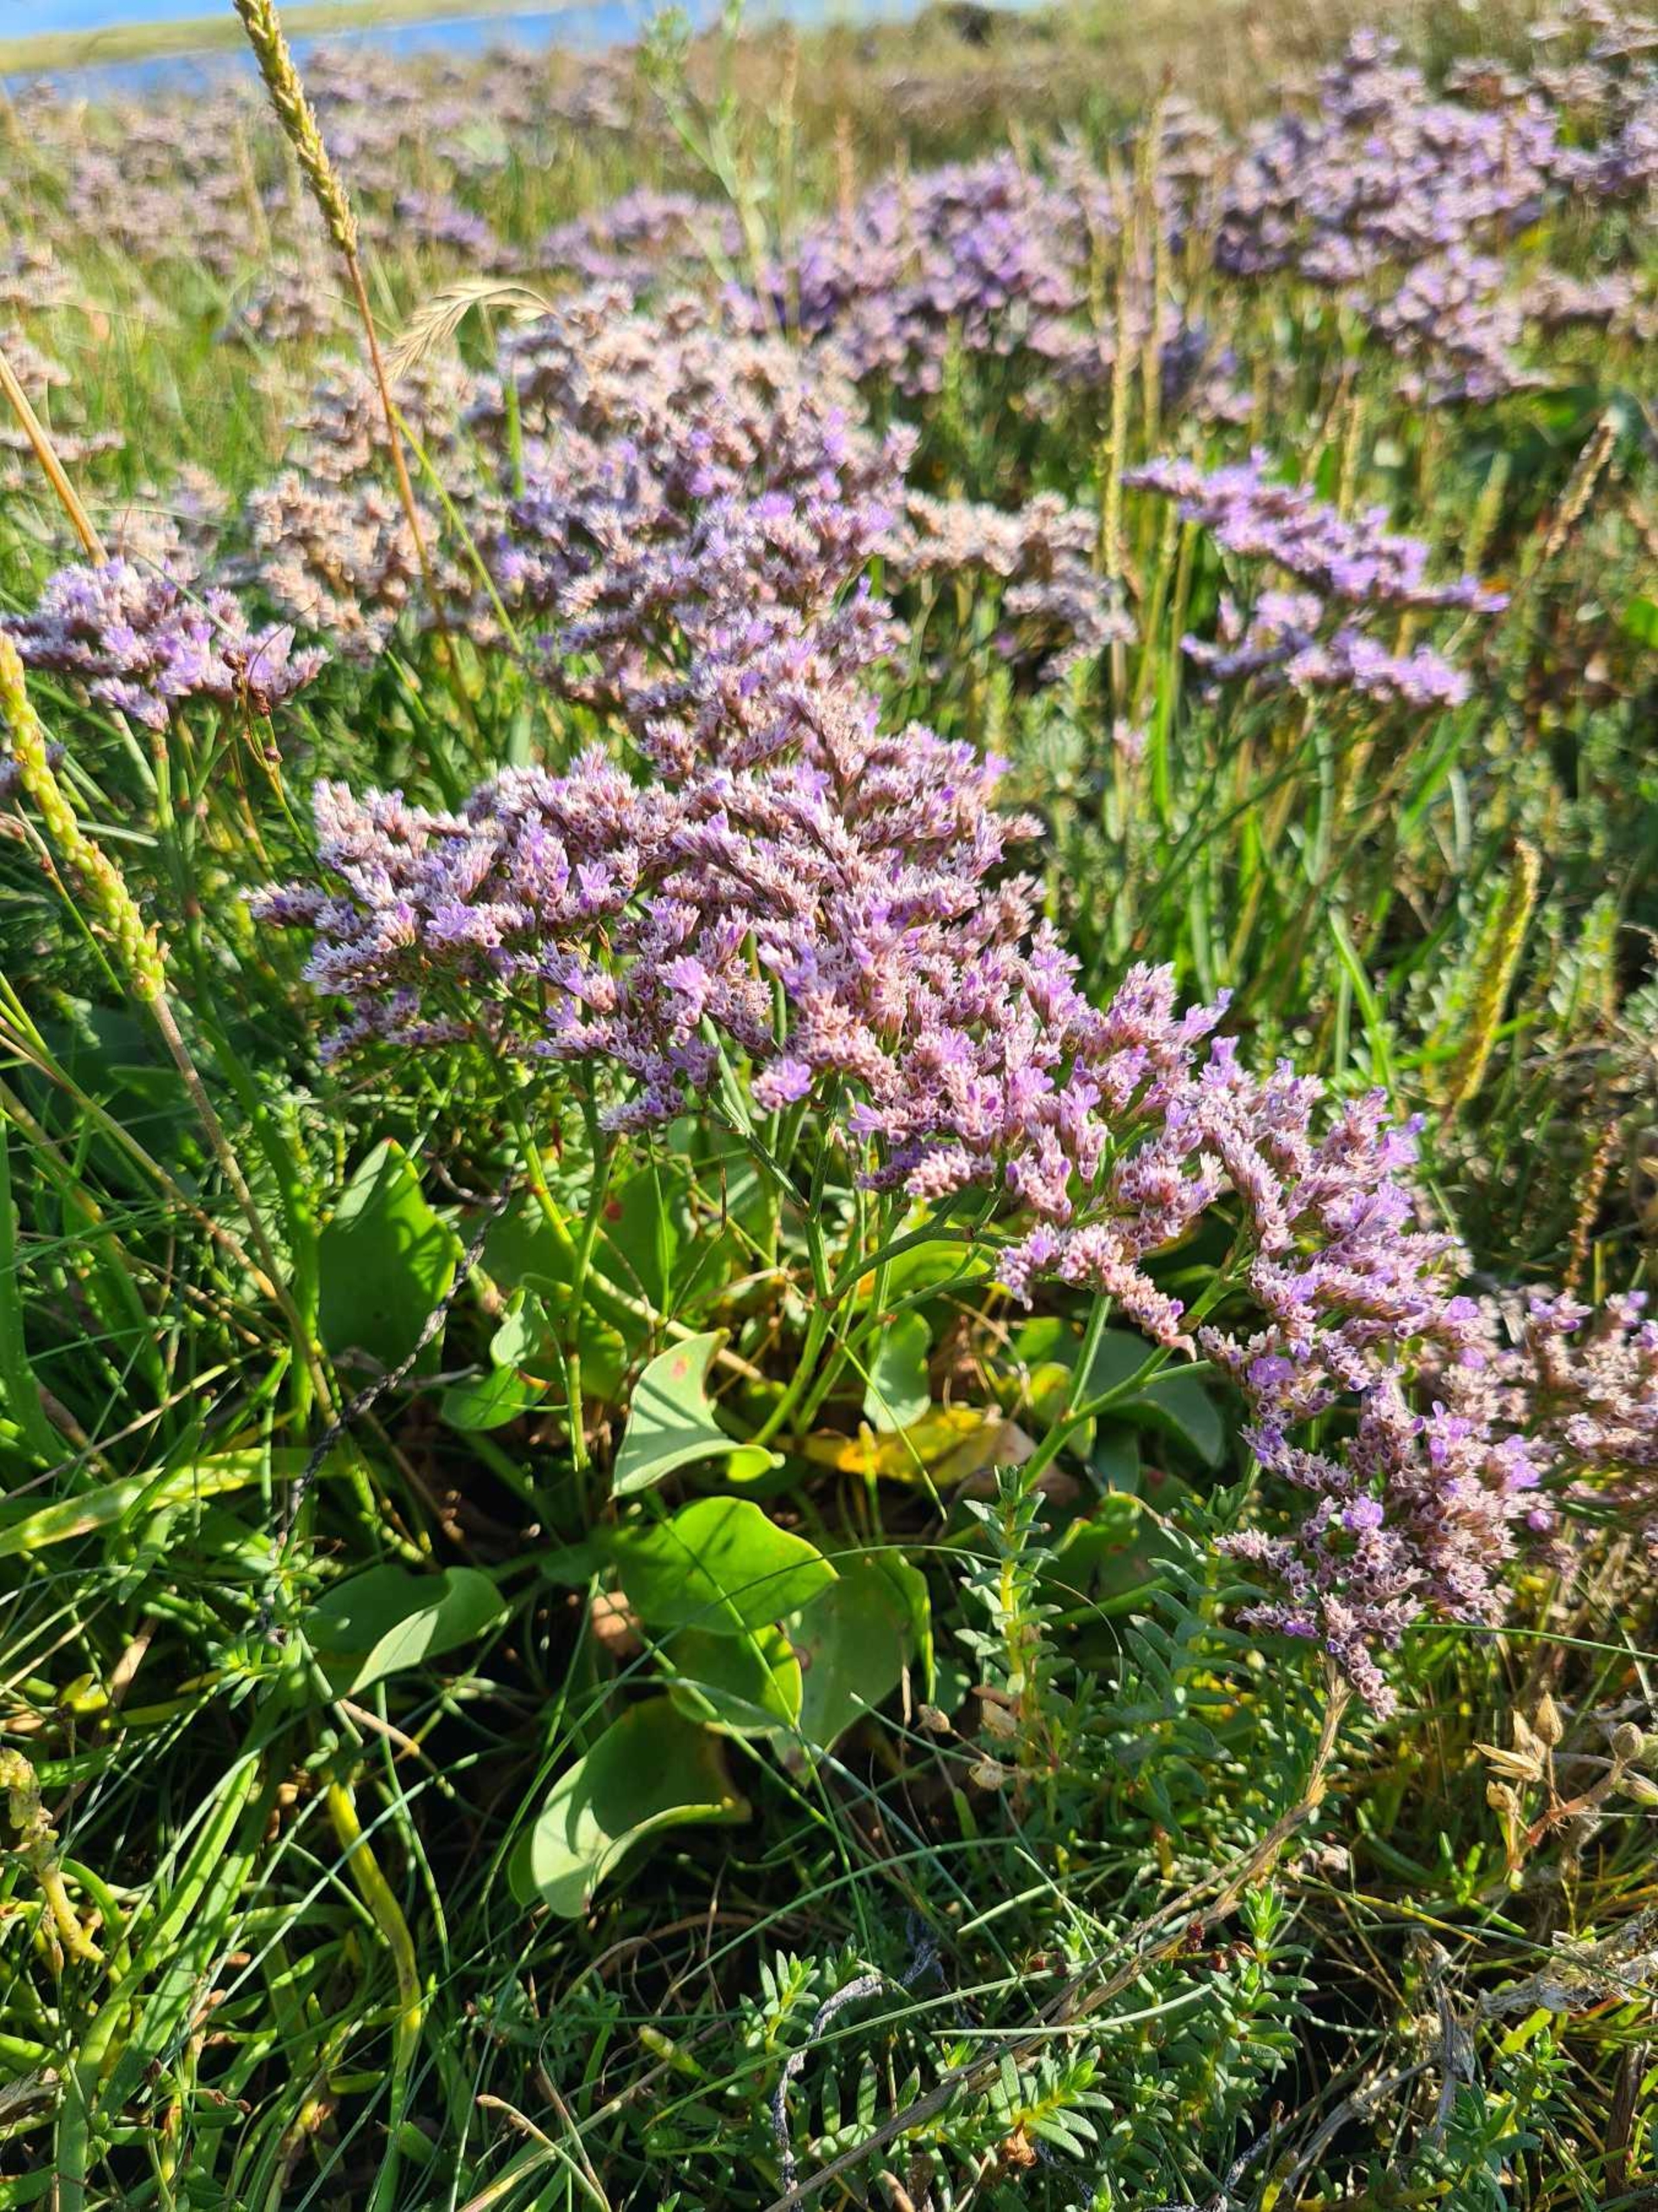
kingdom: Plantae
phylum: Tracheophyta
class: Magnoliopsida
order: Caryophyllales
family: Plumbaginaceae
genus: Limonium
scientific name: Limonium vulgare
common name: Tætblomstret hindebæger
